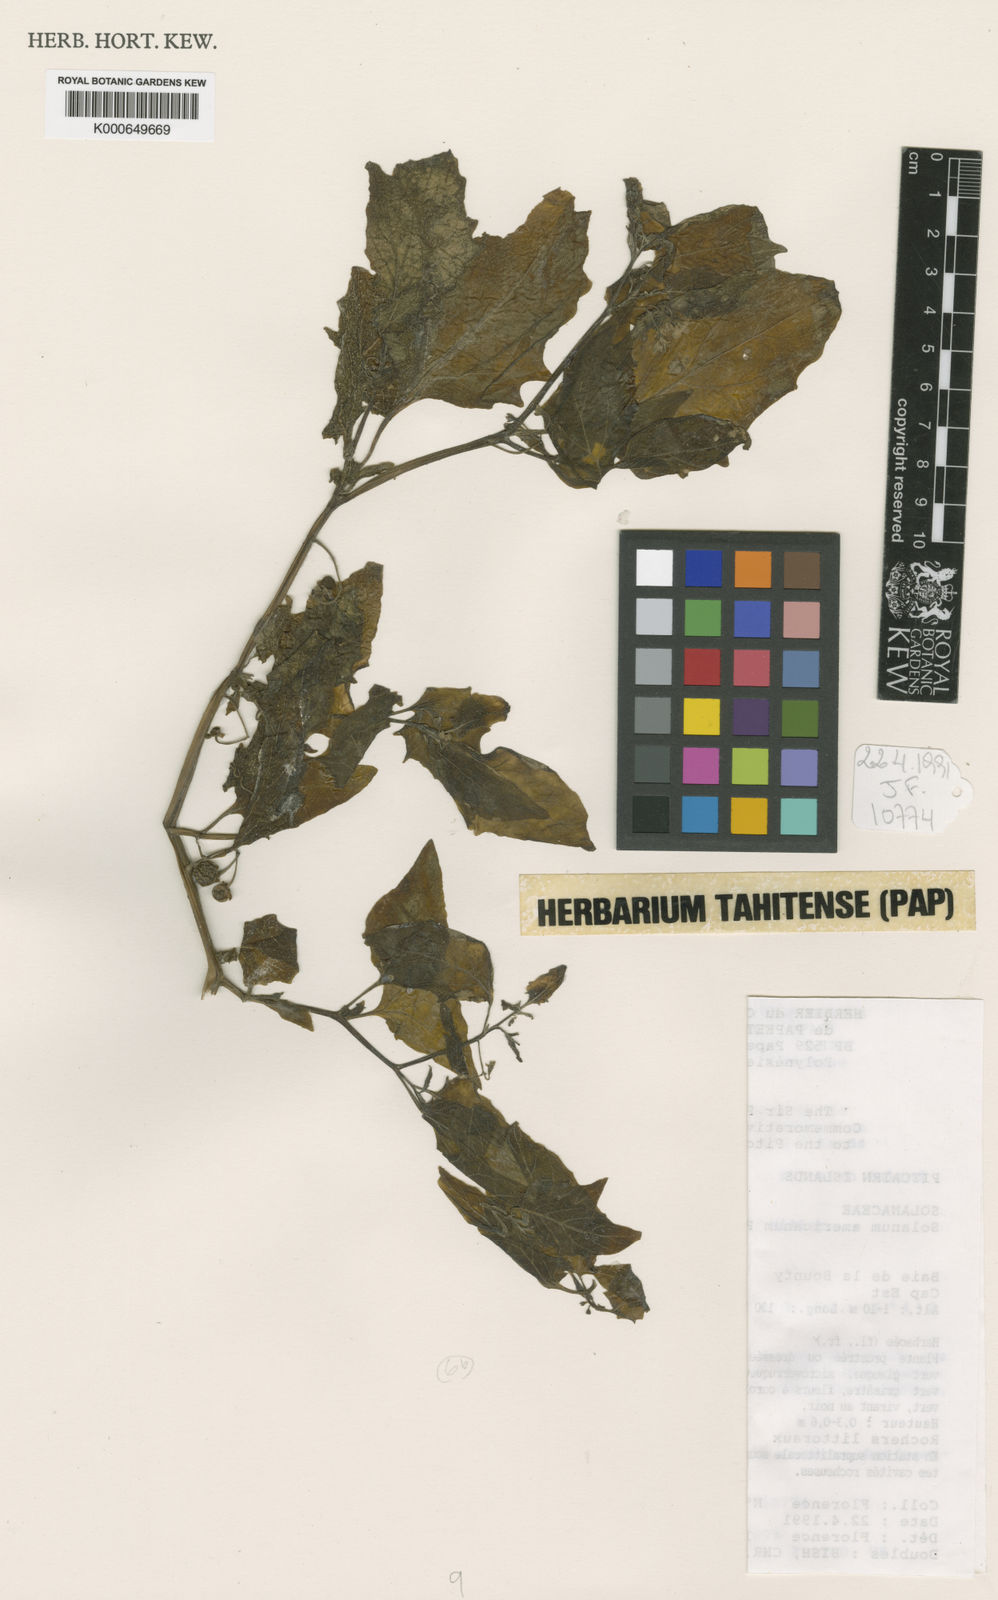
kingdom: Plantae
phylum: Tracheophyta
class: Magnoliopsida
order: Solanales
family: Solanaceae
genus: Solanum
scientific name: Solanum americanum
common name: American black nightshade
